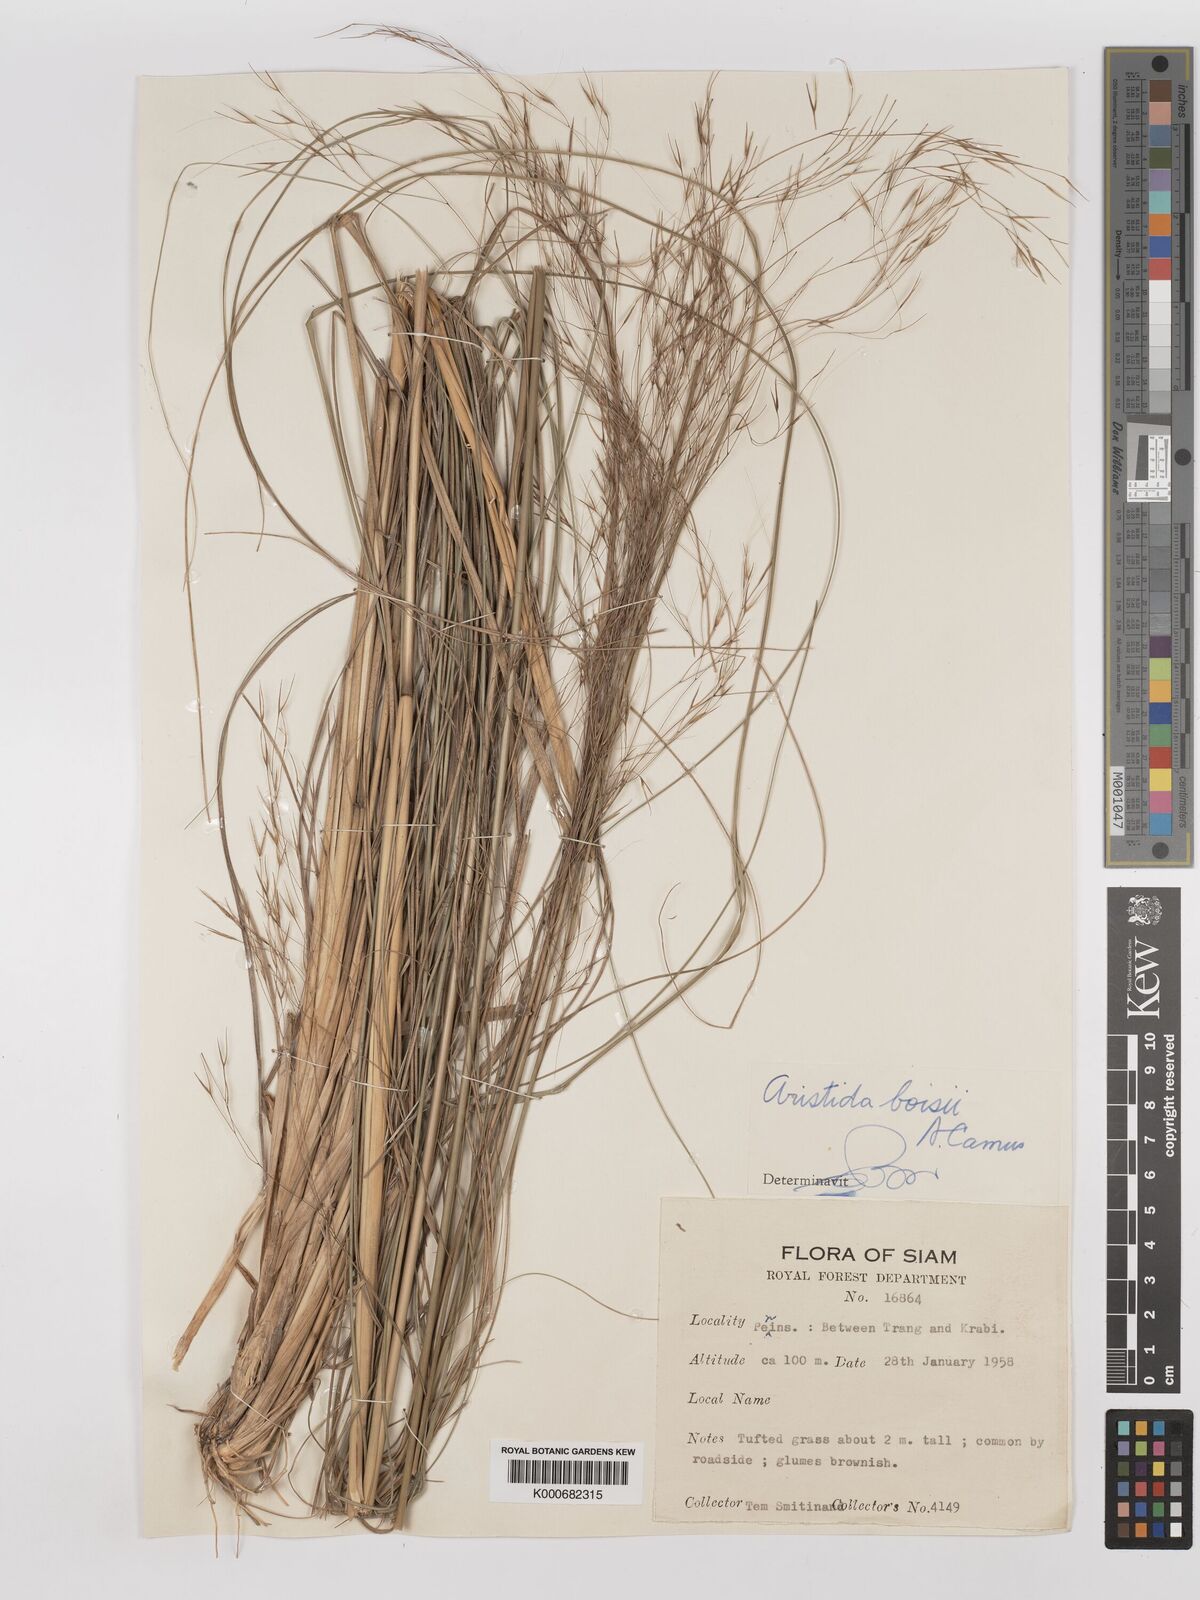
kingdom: Plantae
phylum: Tracheophyta
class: Liliopsida
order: Poales
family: Poaceae
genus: Aristida
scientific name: Aristida culionensis
